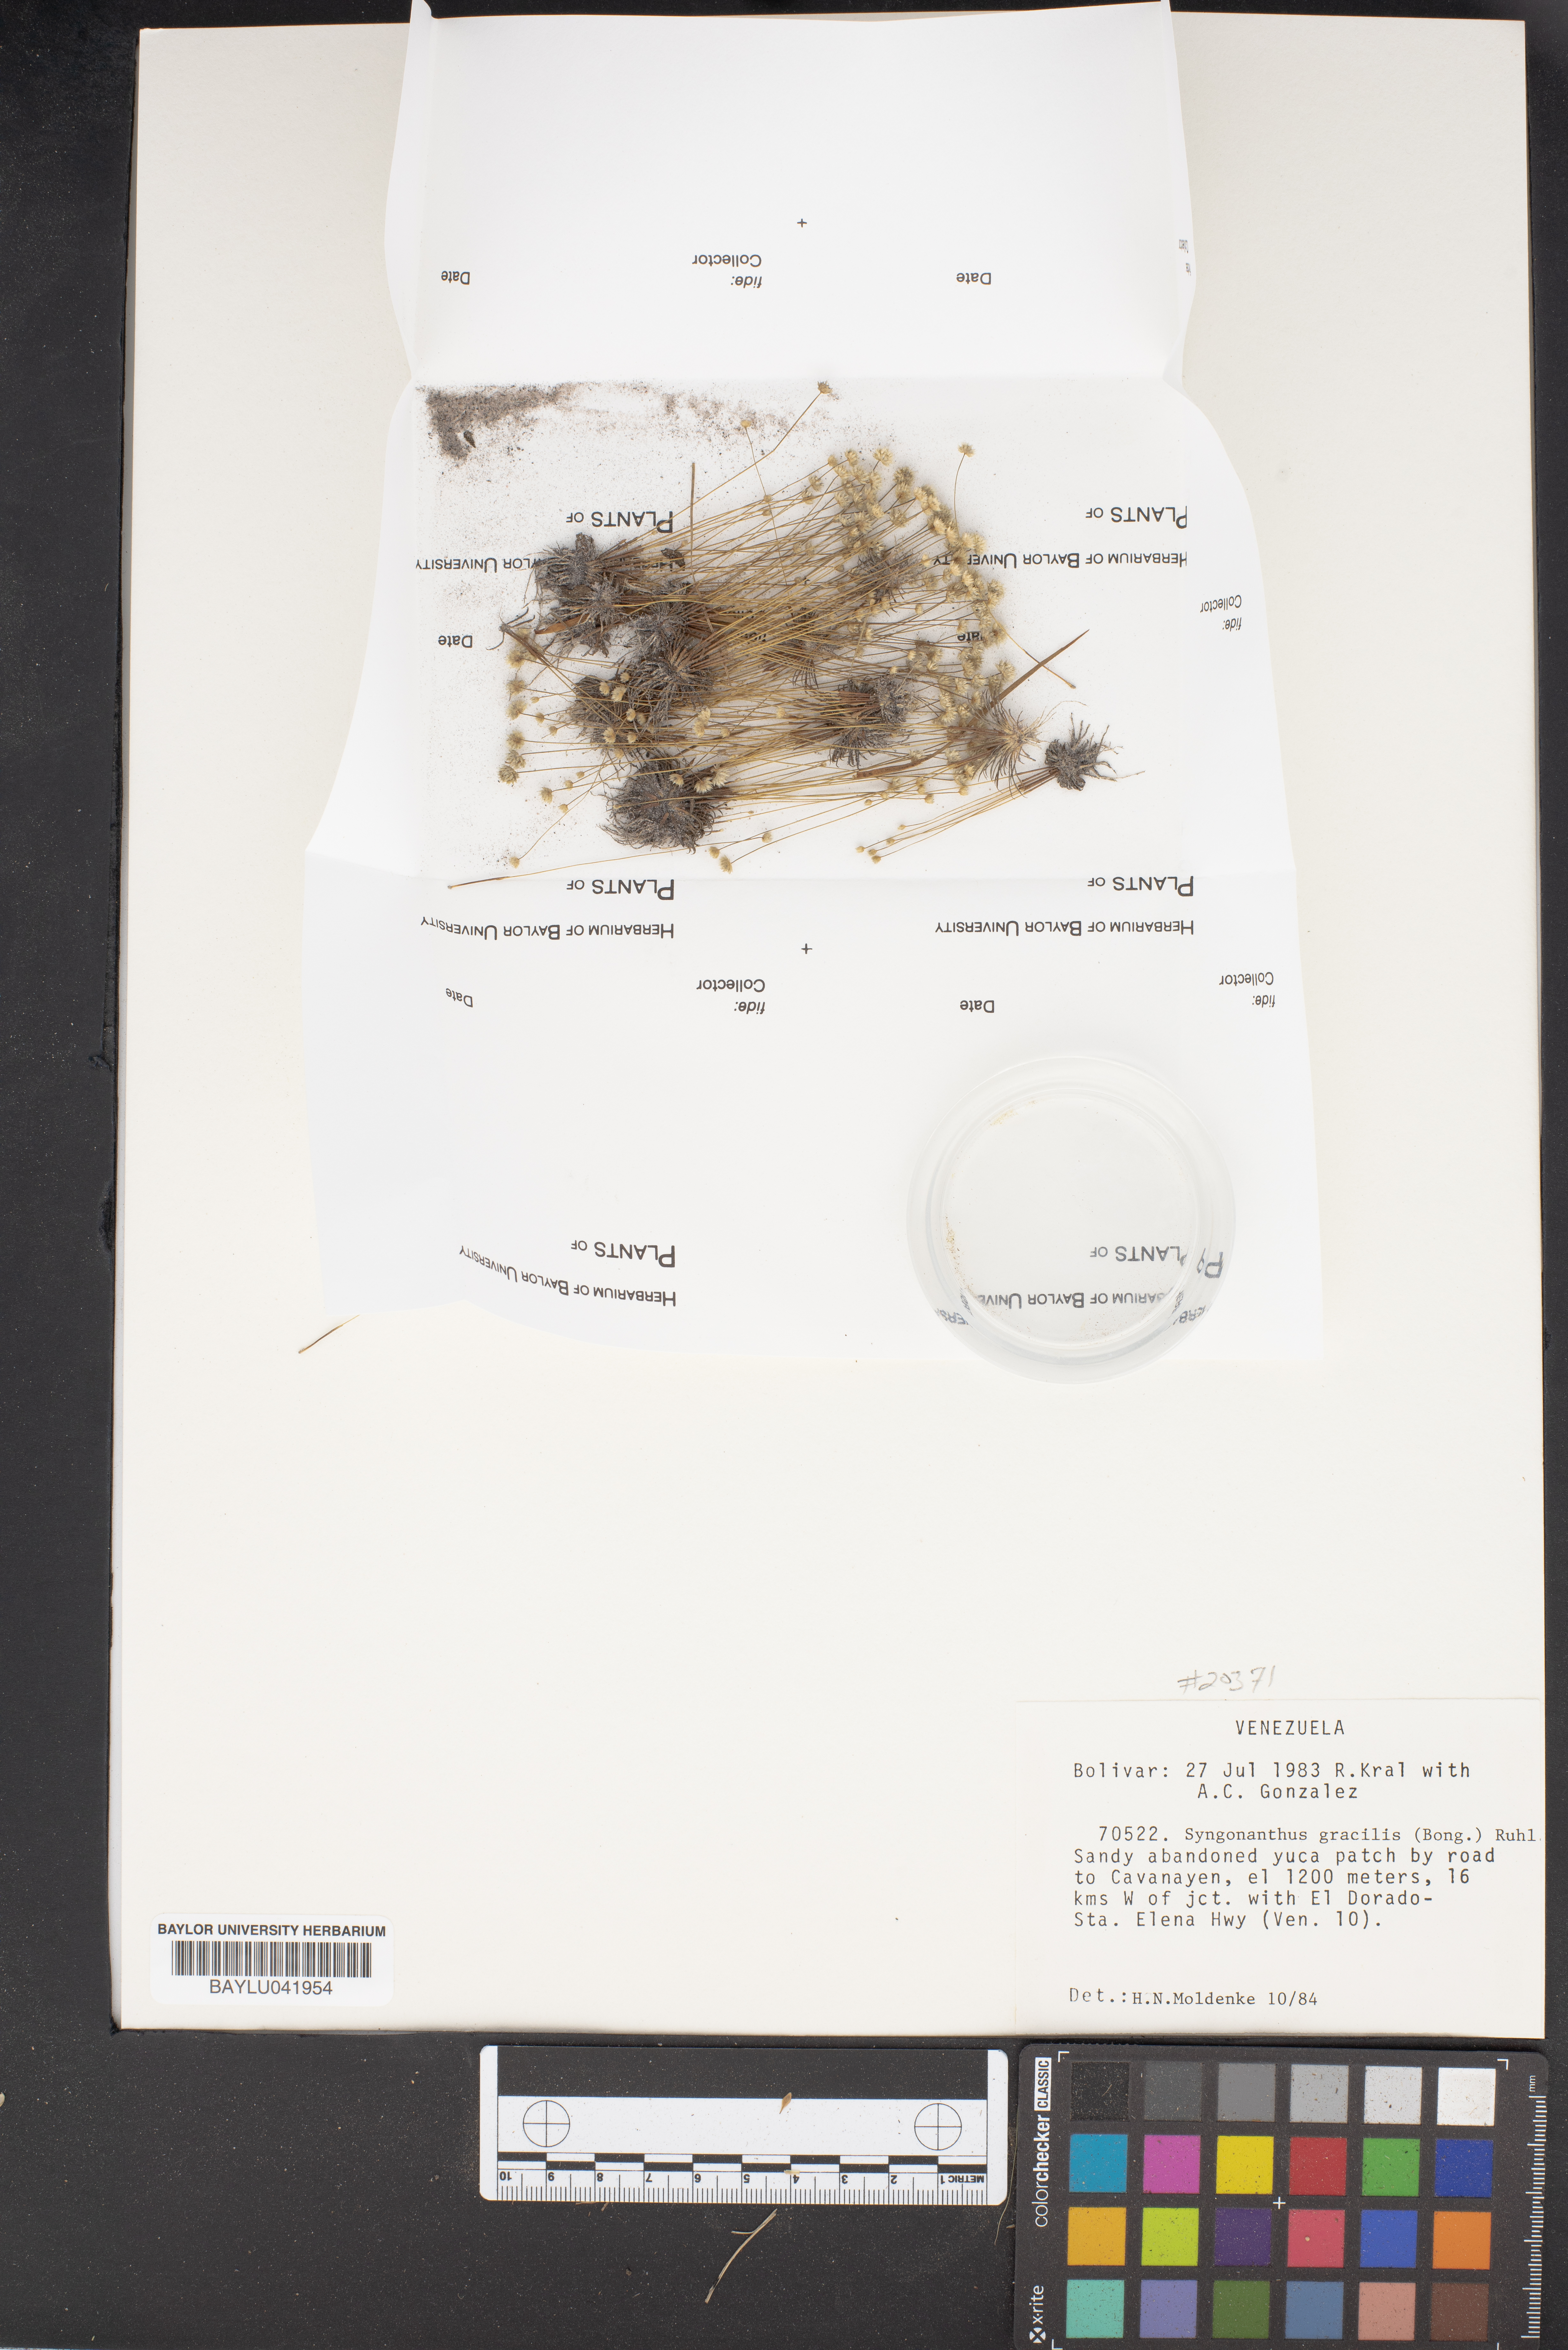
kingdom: Plantae
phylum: Tracheophyta
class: Liliopsida
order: Poales
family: Eriocaulaceae
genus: Syngonanthus
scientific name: Syngonanthus gracilis
